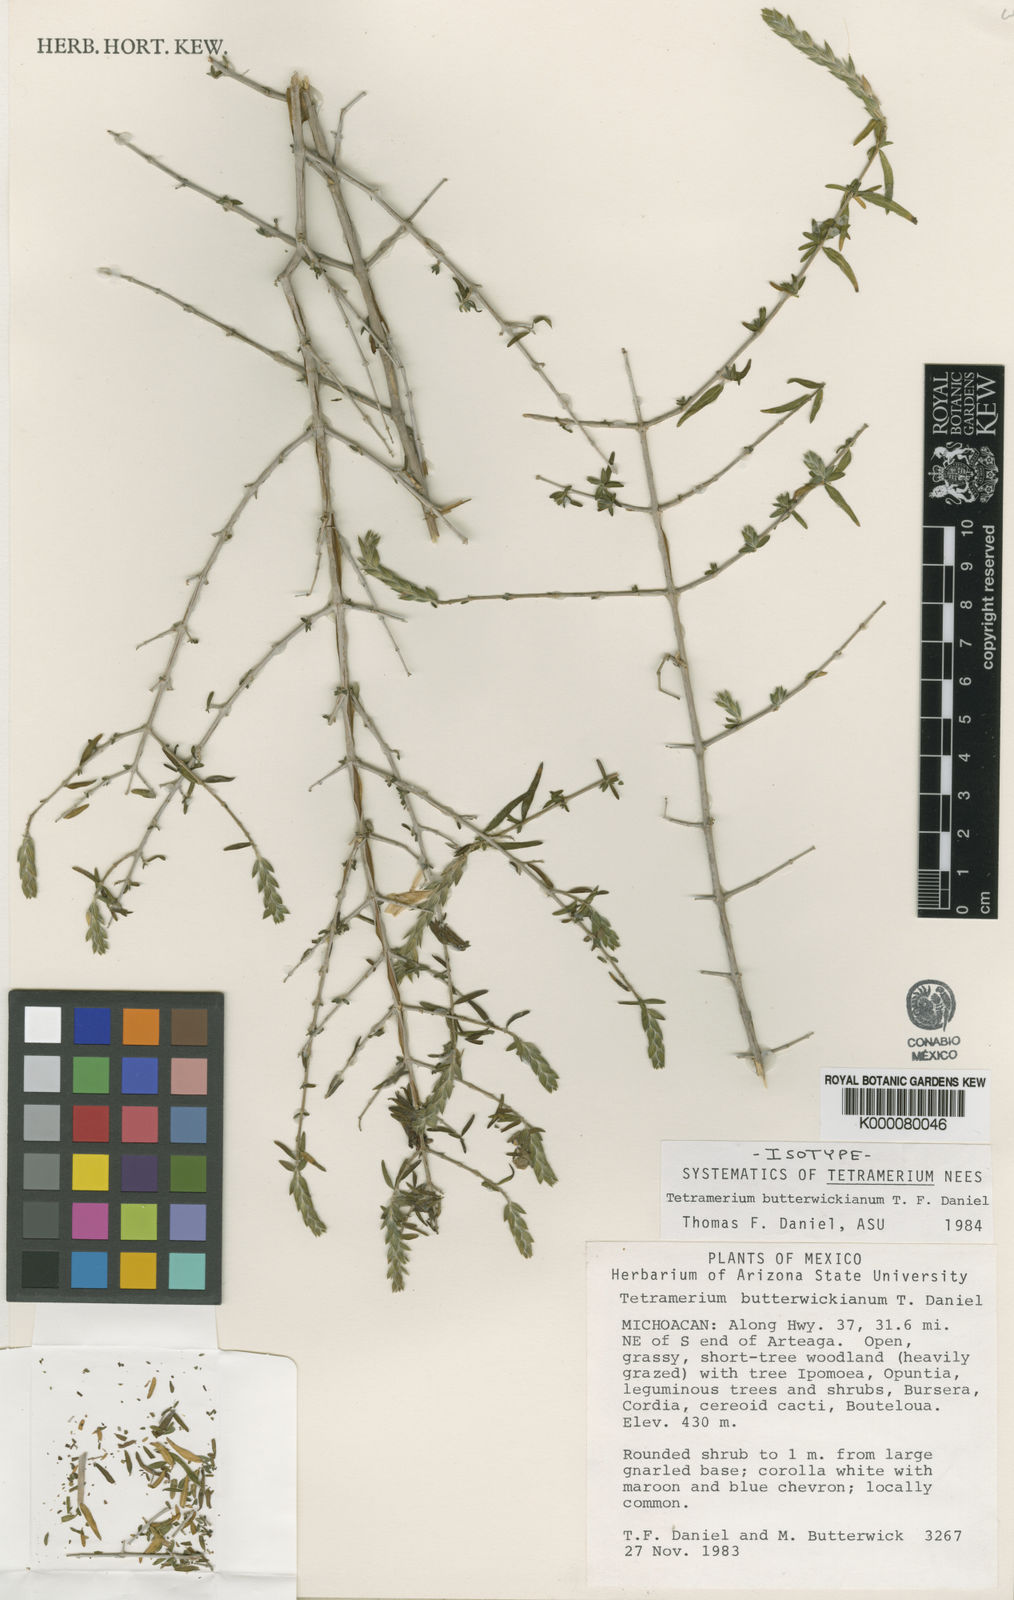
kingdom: Plantae
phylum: Tracheophyta
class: Magnoliopsida
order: Lamiales
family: Acanthaceae
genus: Tetramerium
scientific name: Tetramerium butterwickianum
